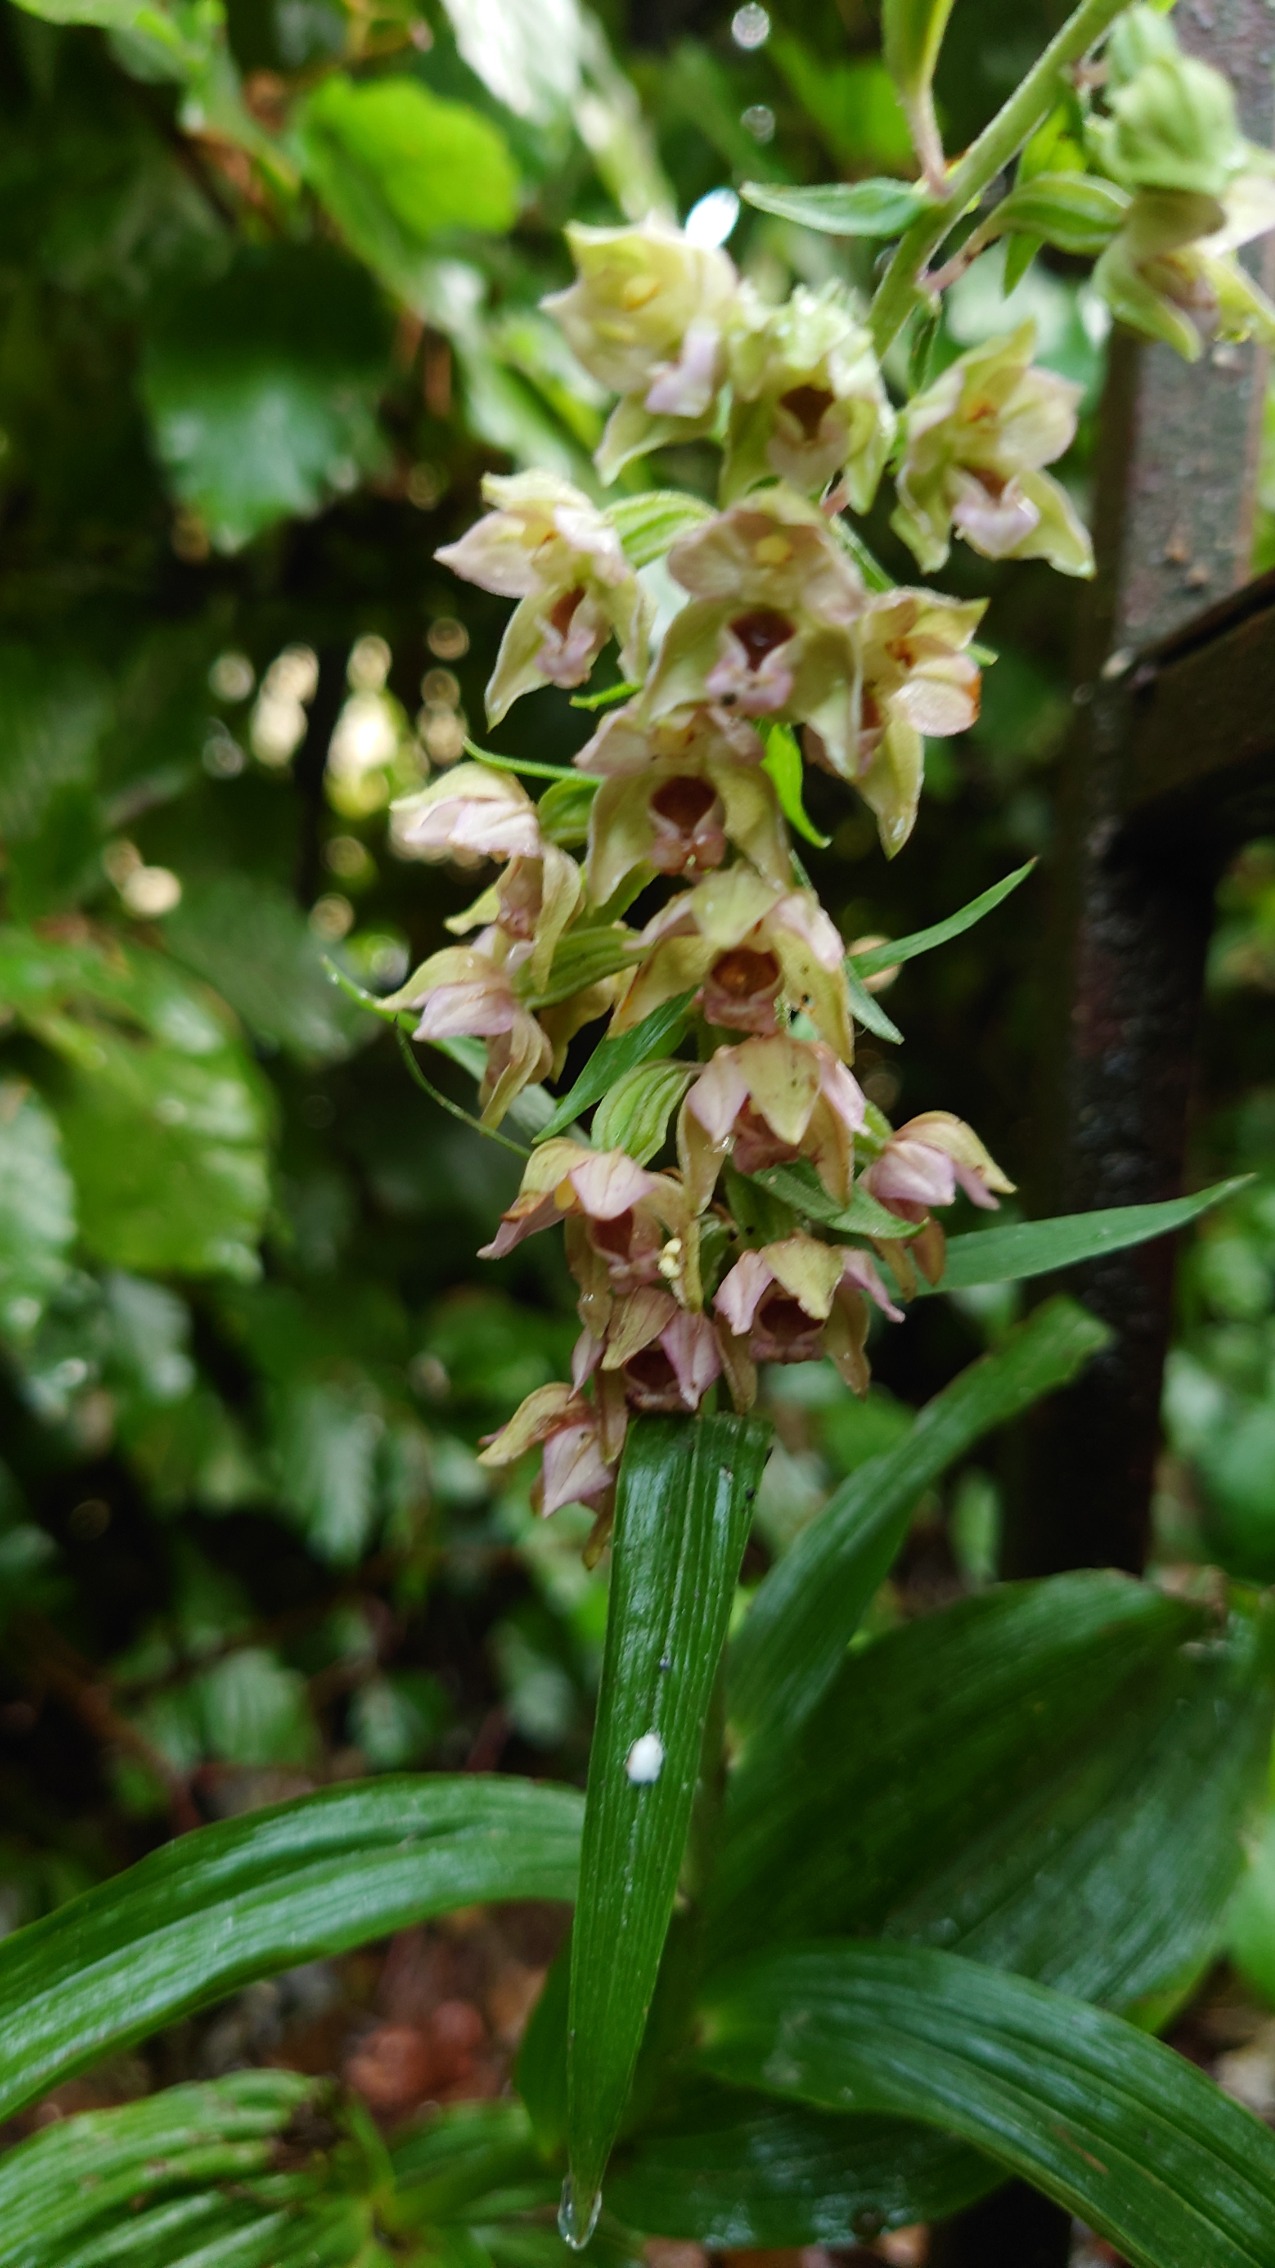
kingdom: Plantae
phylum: Tracheophyta
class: Liliopsida
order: Asparagales
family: Orchidaceae
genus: Epipactis
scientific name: Epipactis helleborine
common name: Skov-hullæbe
